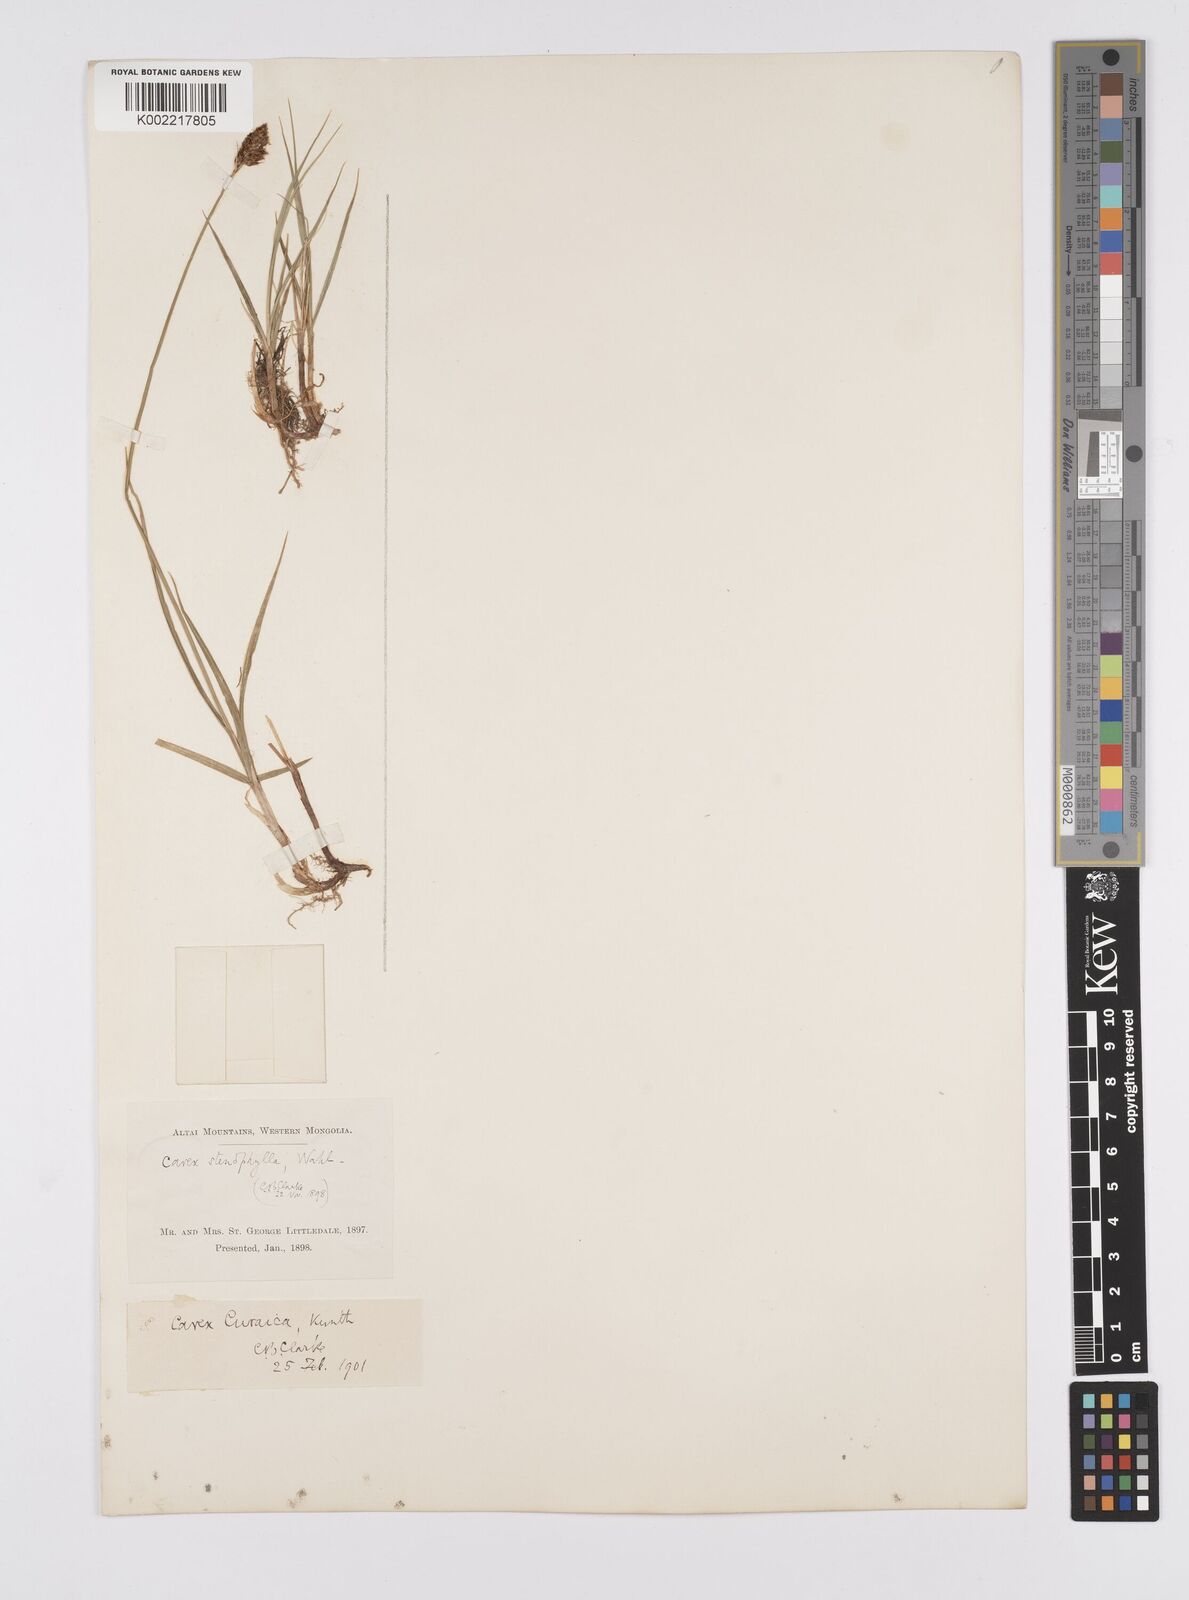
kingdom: Plantae
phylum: Tracheophyta
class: Liliopsida
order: Poales
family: Cyperaceae
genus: Carex
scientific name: Carex curaica
